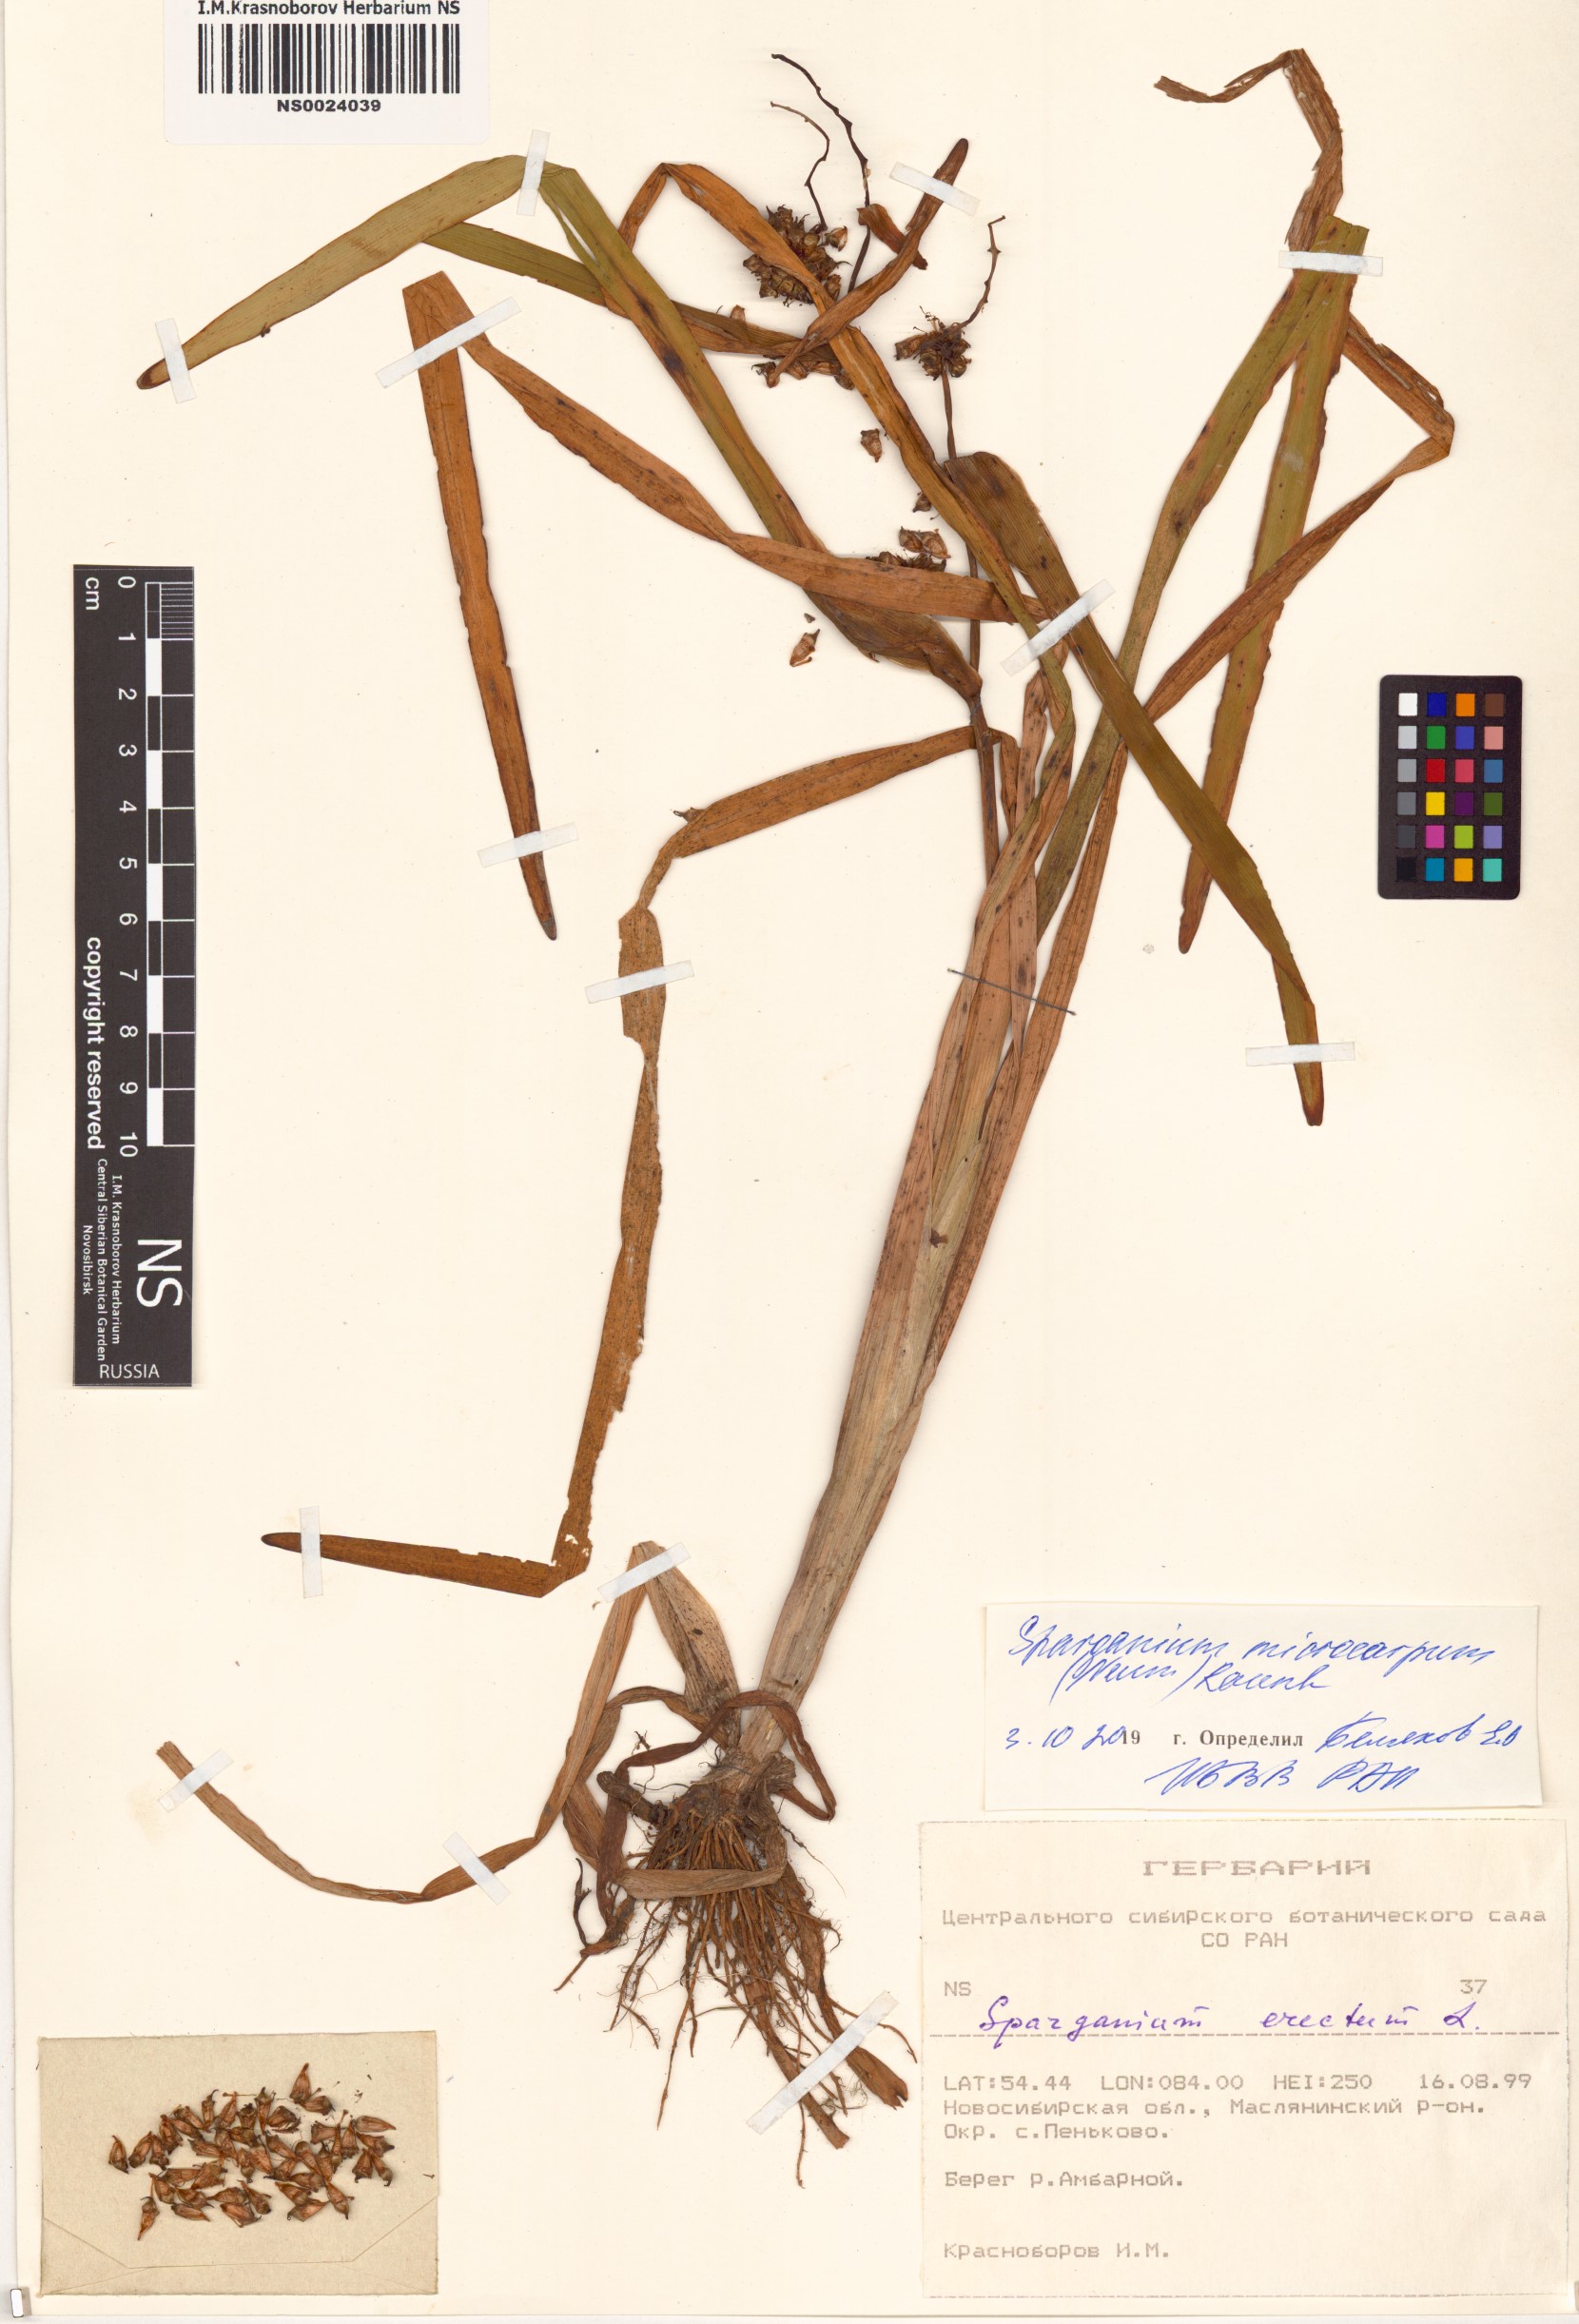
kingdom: Plantae
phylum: Tracheophyta
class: Liliopsida
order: Poales
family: Typhaceae
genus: Sparganium
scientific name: Sparganium erectum
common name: Branched bur-reed
